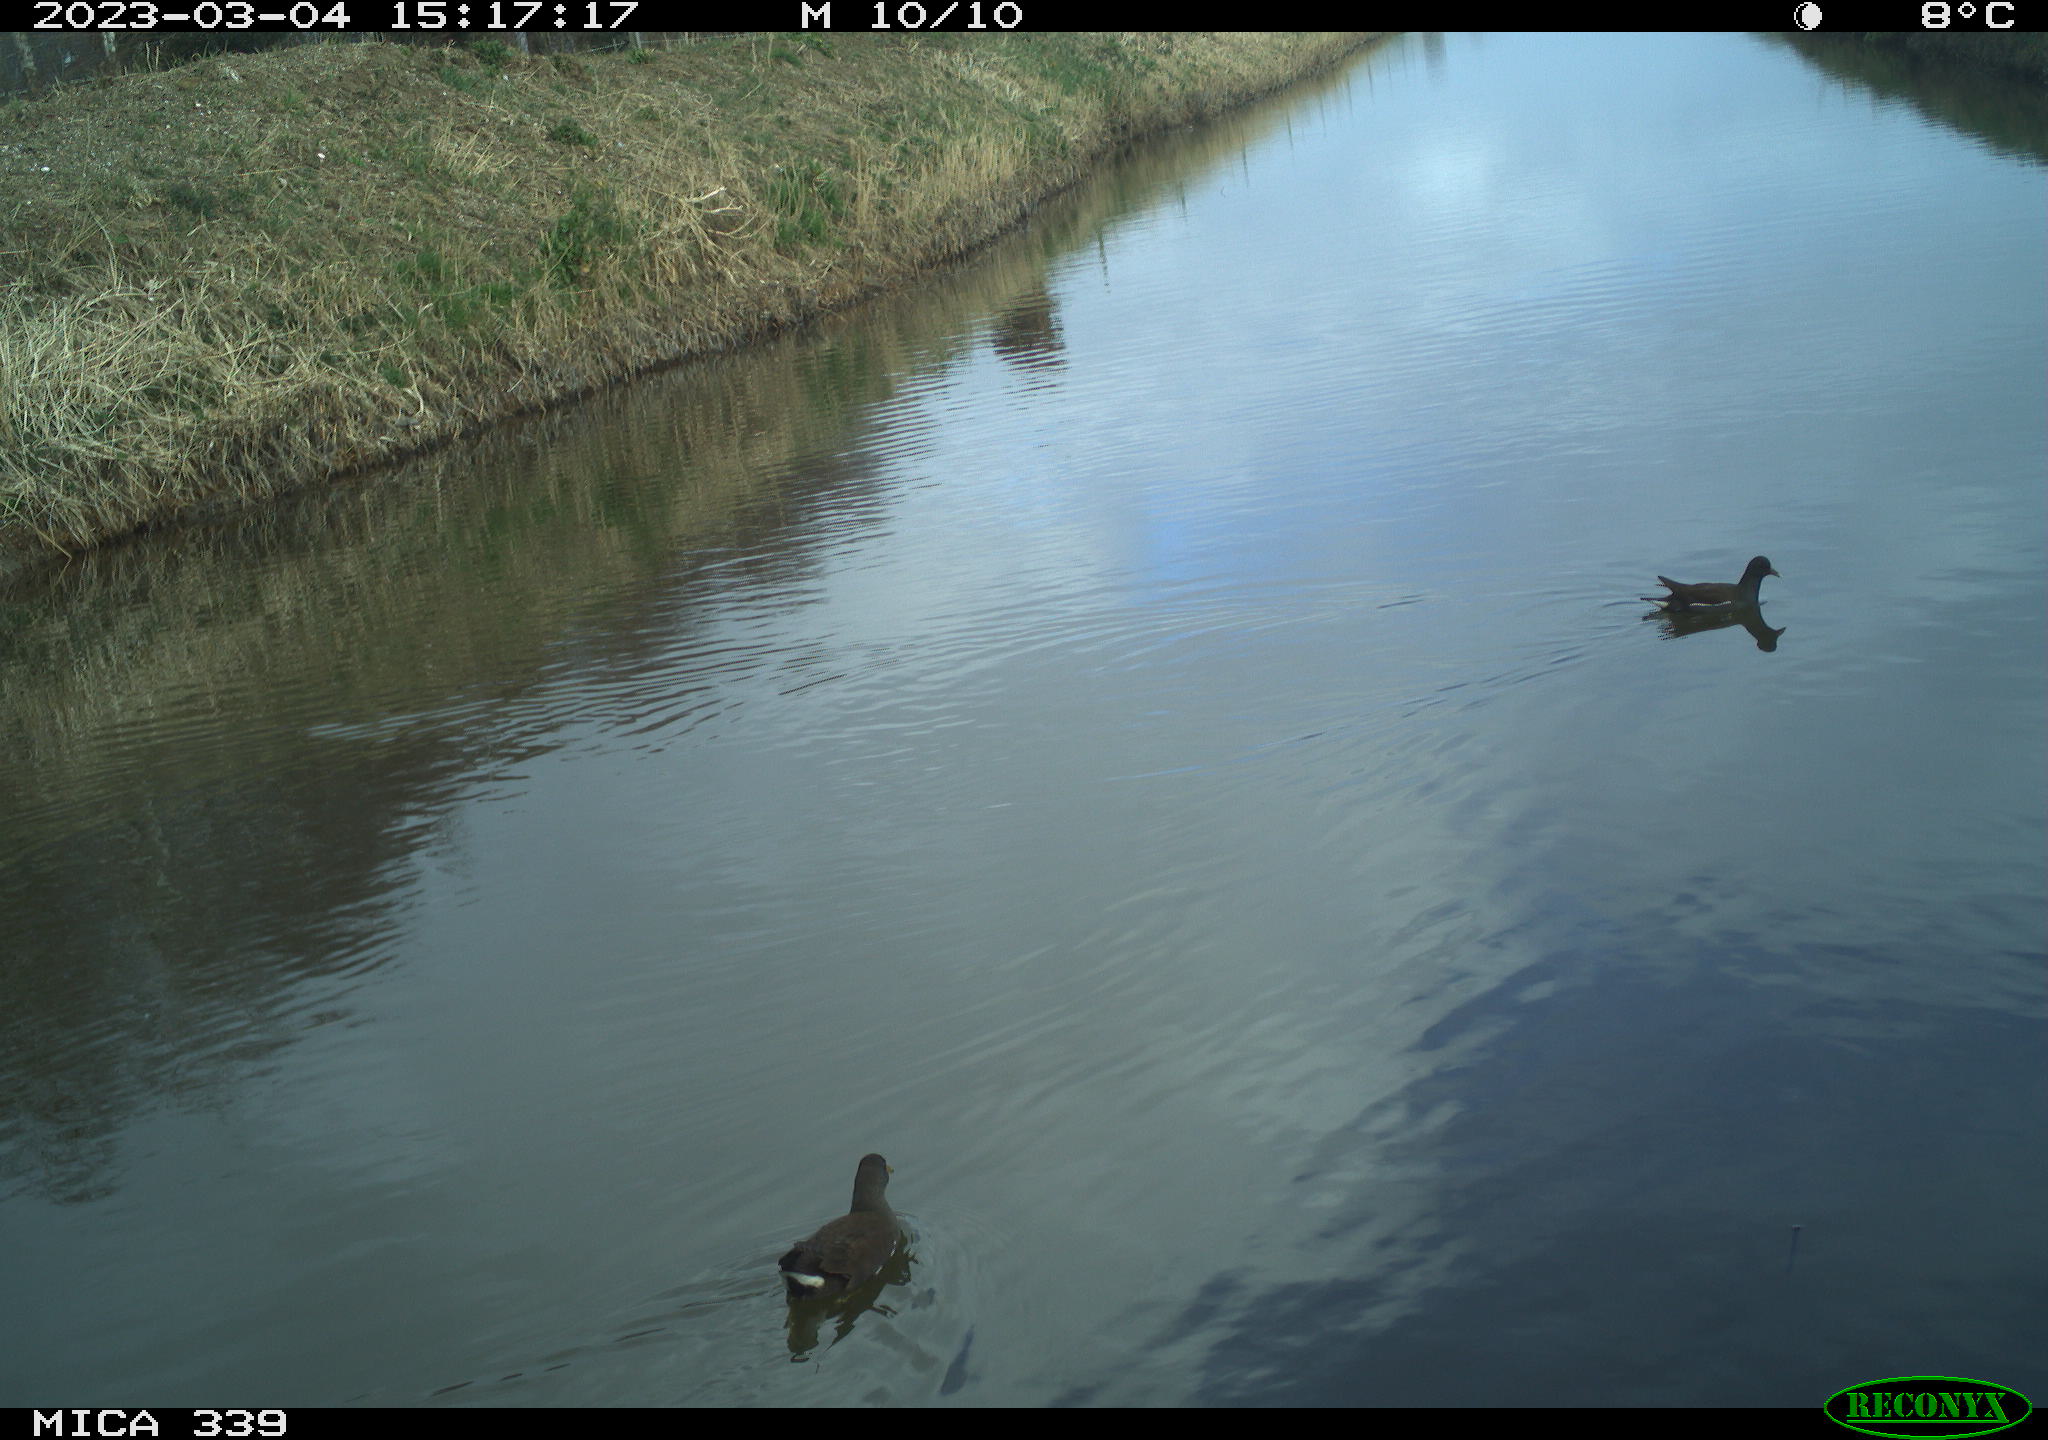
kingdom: Animalia
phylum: Chordata
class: Aves
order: Gruiformes
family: Rallidae
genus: Gallinula
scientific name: Gallinula chloropus
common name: Common moorhen
